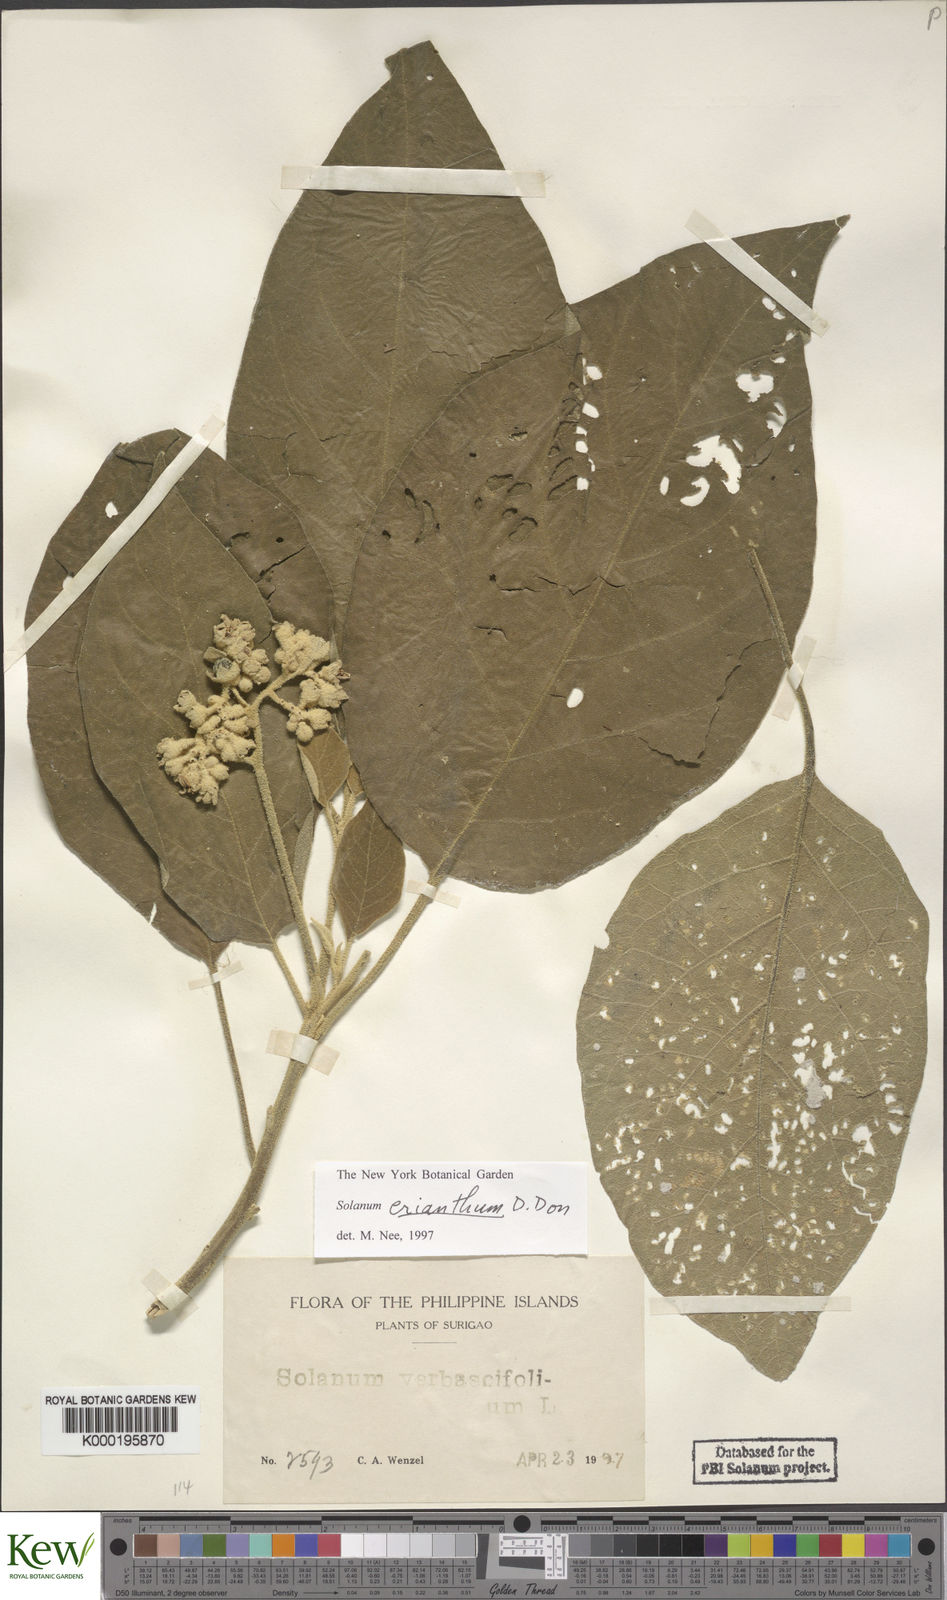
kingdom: Plantae
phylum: Tracheophyta
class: Magnoliopsida
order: Solanales
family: Solanaceae
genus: Solanum
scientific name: Solanum erianthum
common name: Tobacco-tree
